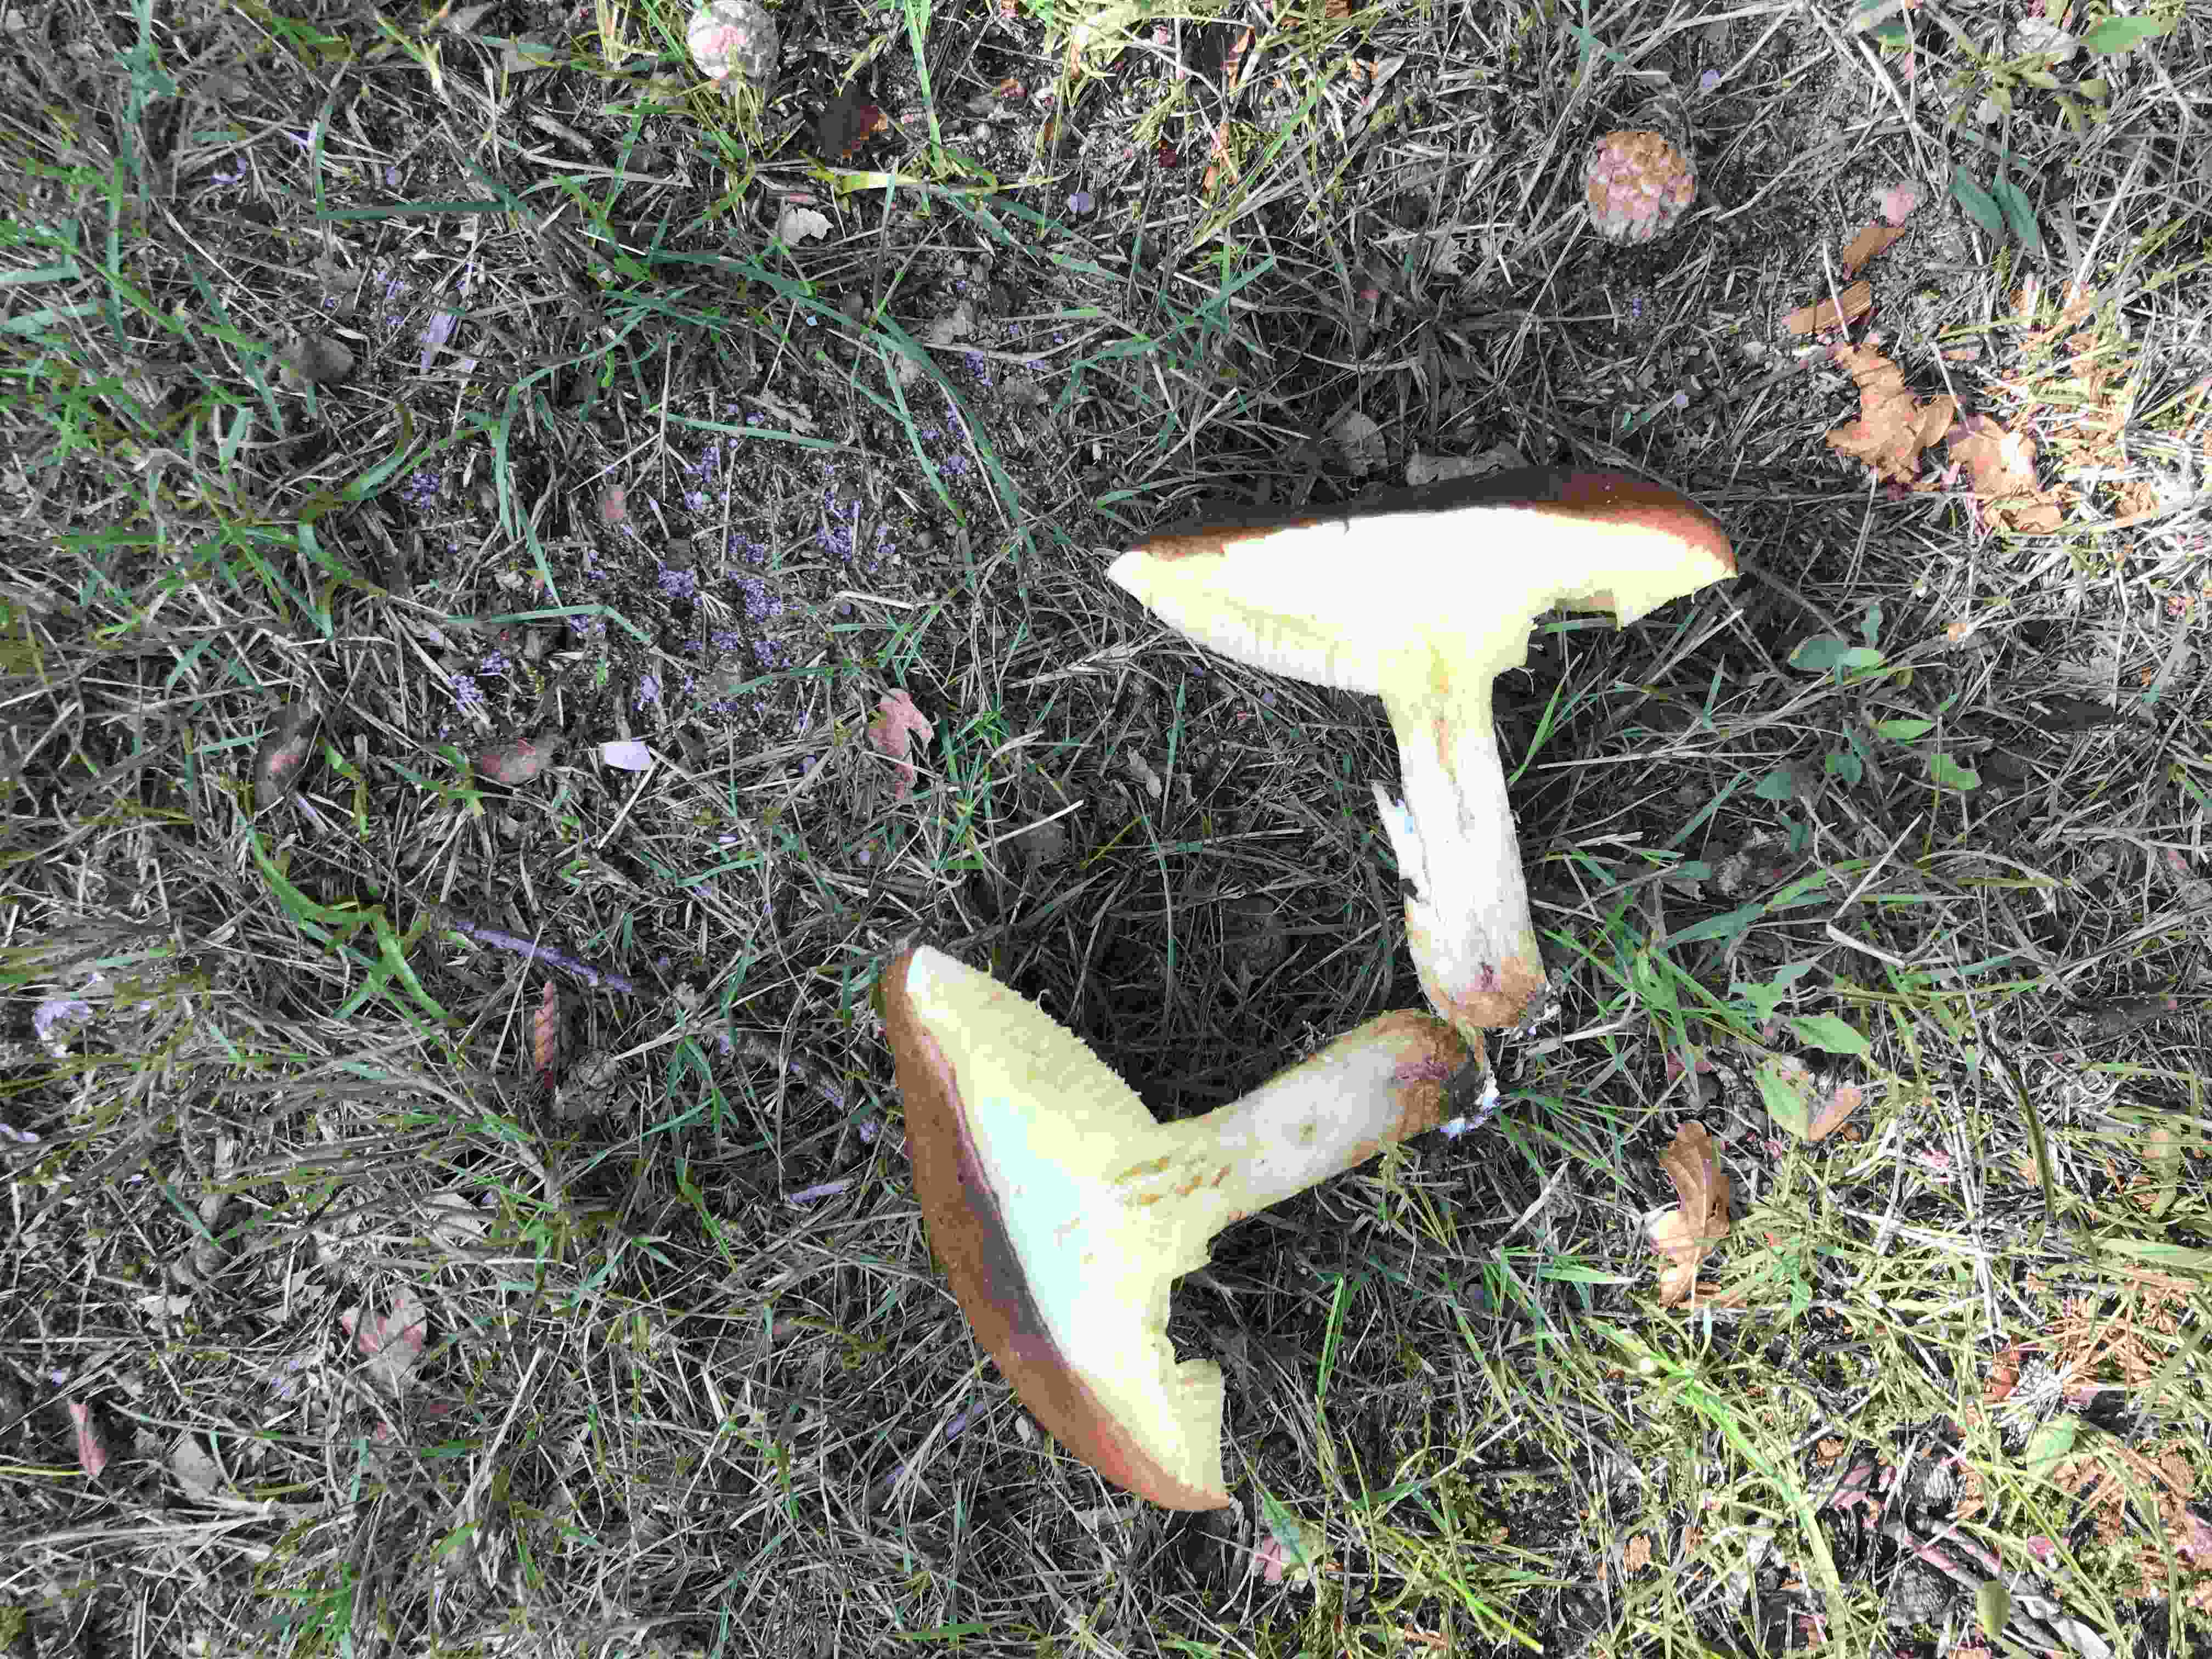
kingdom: Fungi
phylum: Basidiomycota
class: Agaricomycetes
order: Boletales
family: Suillaceae
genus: Suillus
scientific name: Suillus
